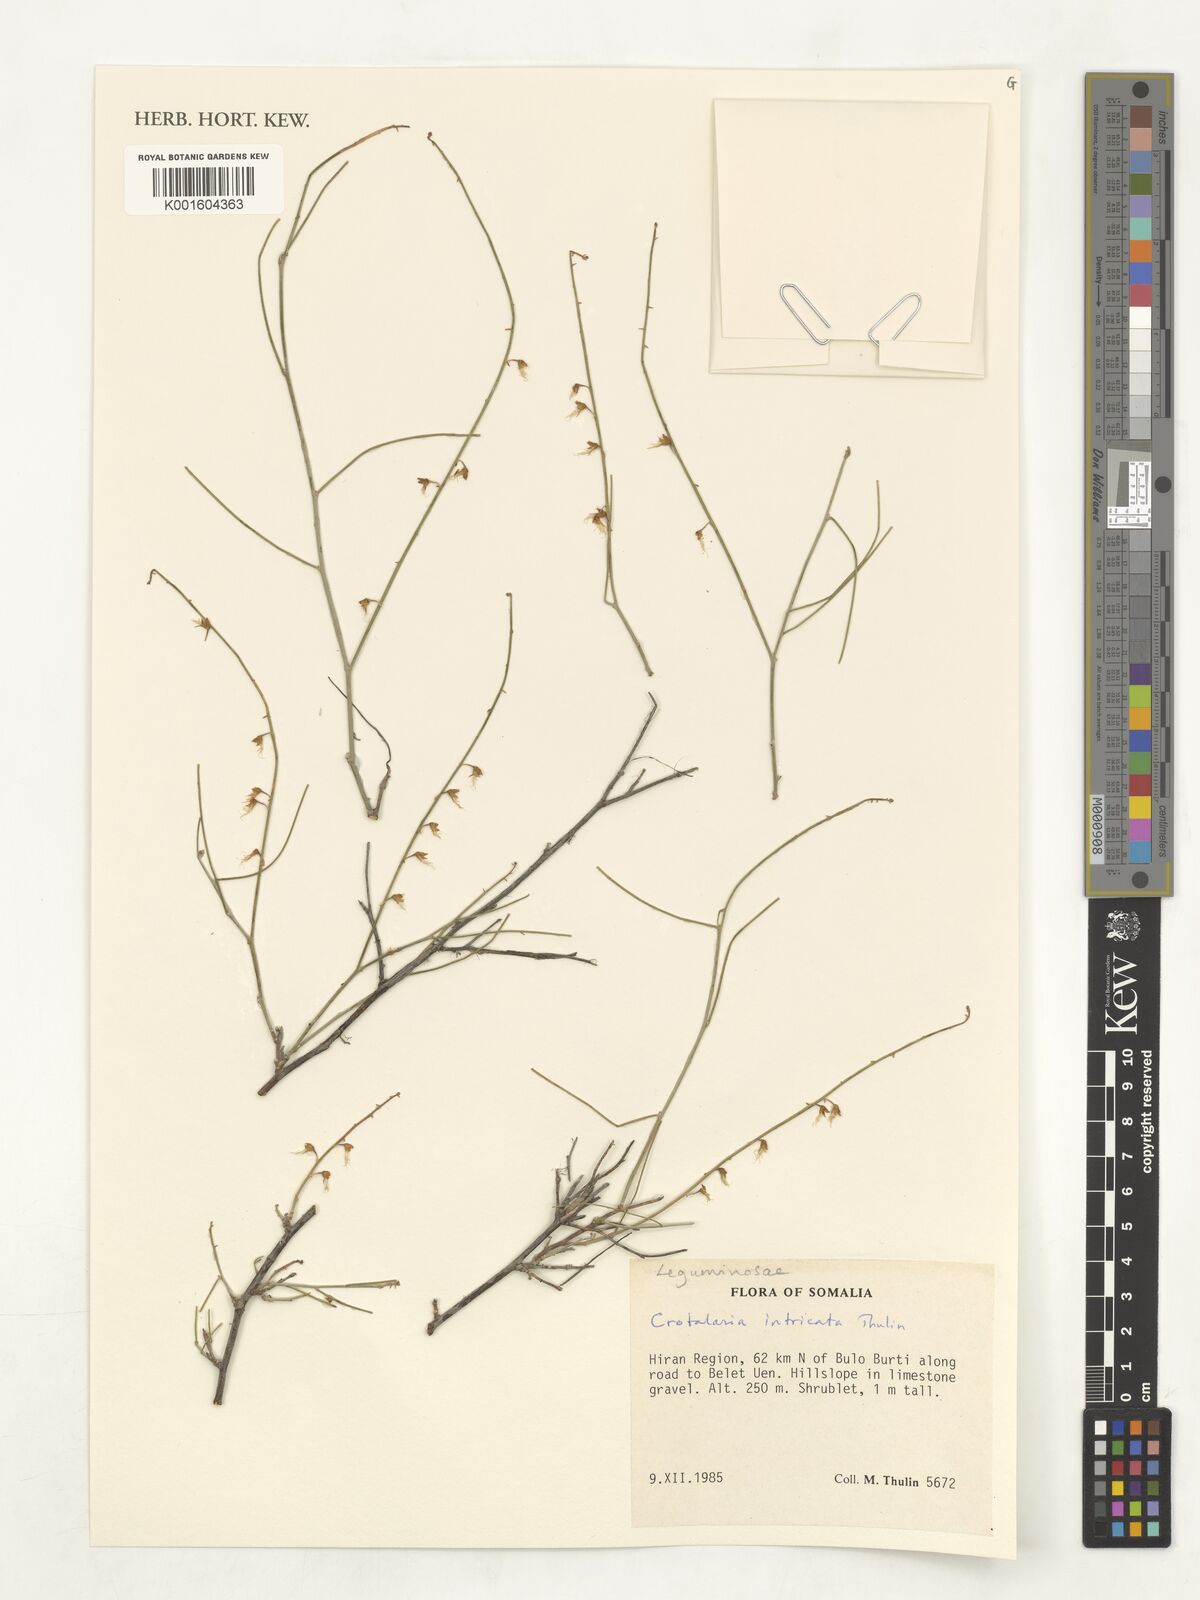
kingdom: Plantae
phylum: Tracheophyta
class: Magnoliopsida
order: Fabales
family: Fabaceae
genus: Crotalaria
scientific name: Crotalaria intricata
